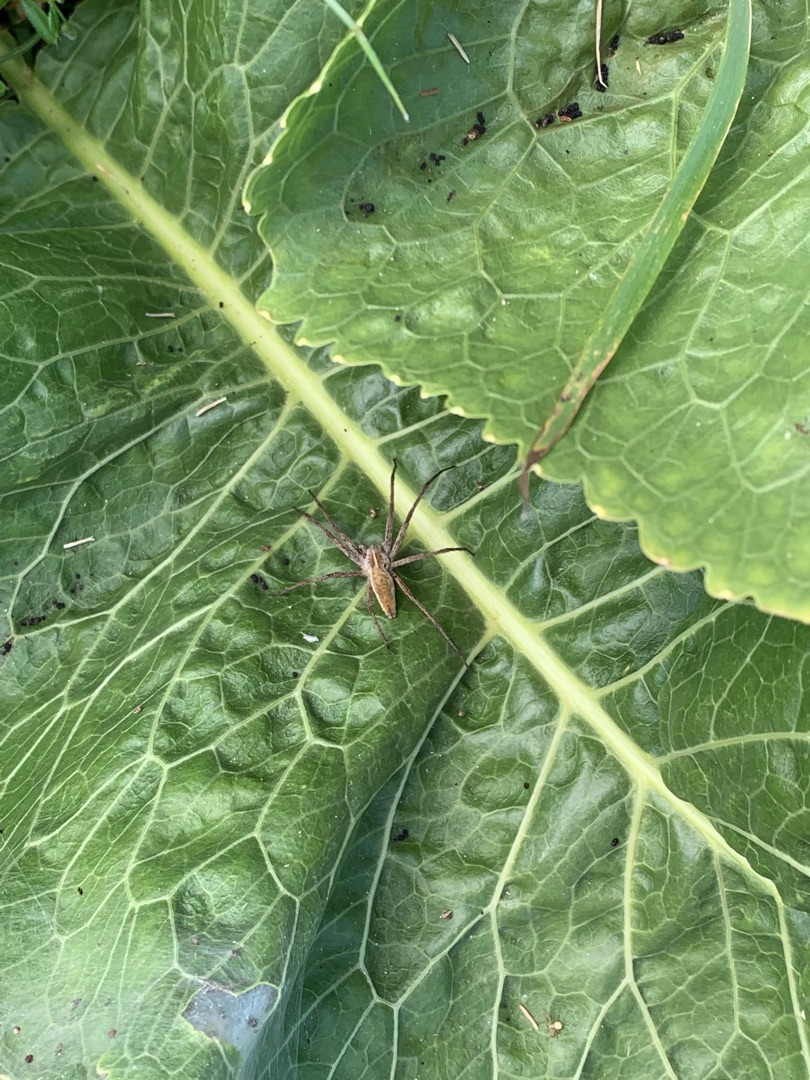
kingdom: Animalia
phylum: Arthropoda
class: Arachnida
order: Araneae
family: Pisauridae
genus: Pisaura
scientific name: Pisaura mirabilis
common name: Almindelig rovedderkop
